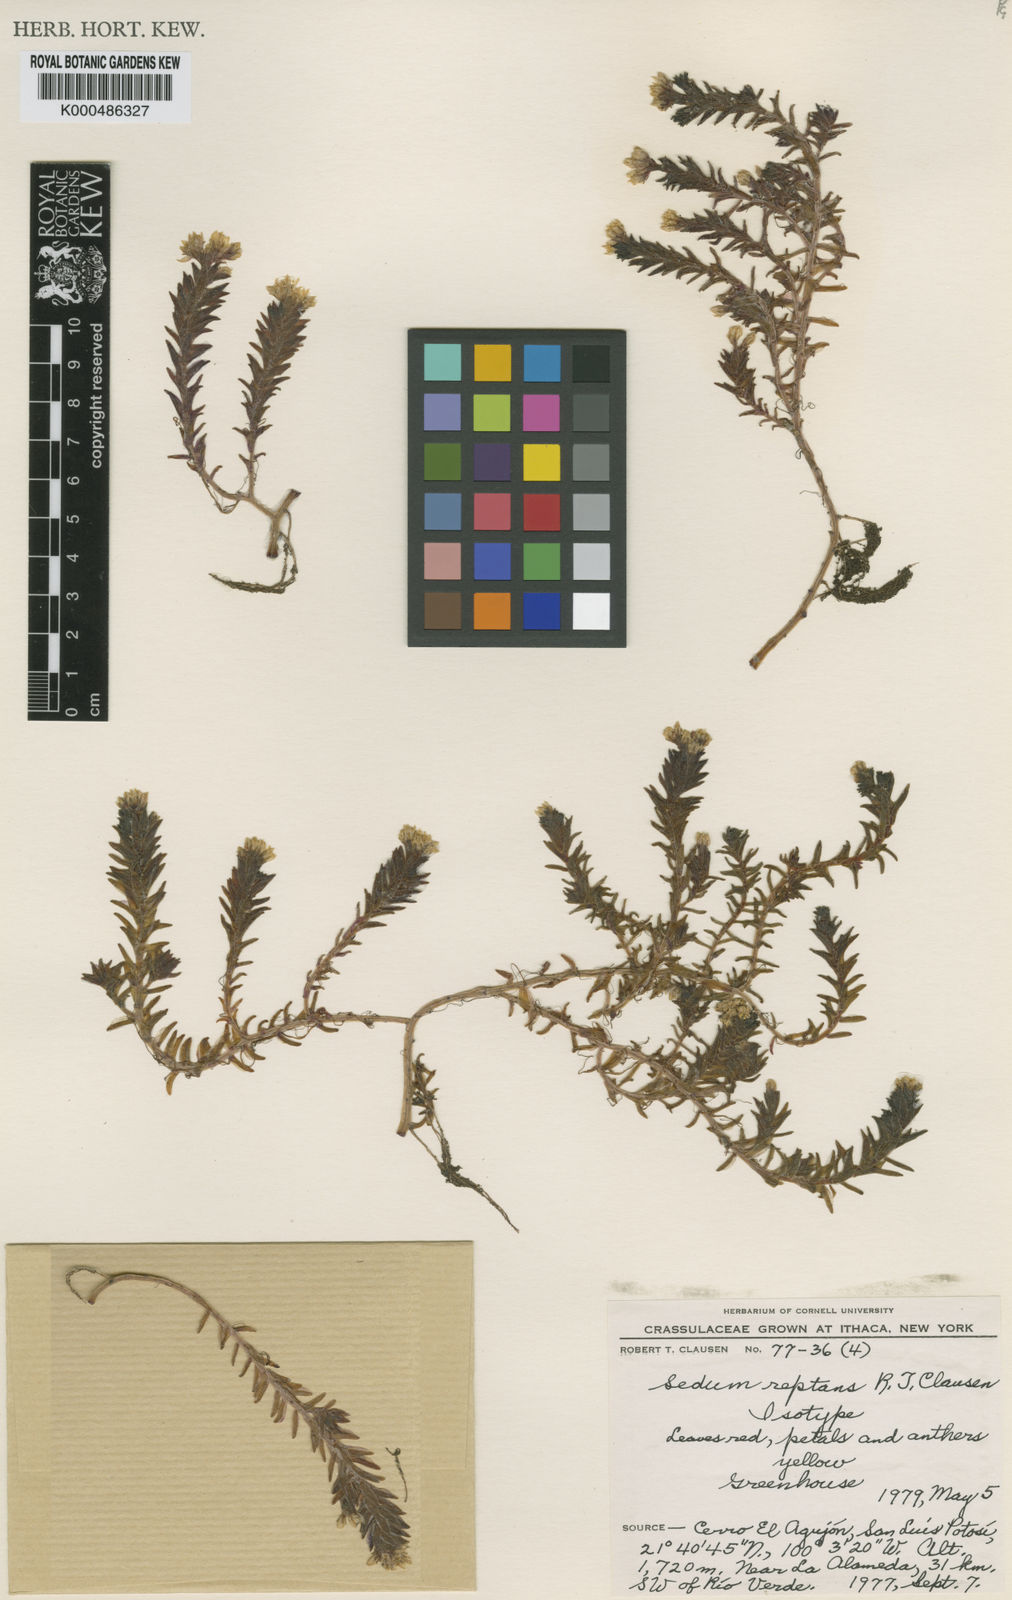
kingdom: Plantae
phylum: Tracheophyta
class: Magnoliopsida
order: Saxifragales
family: Crassulaceae
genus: Sedum
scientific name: Sedum reptans
